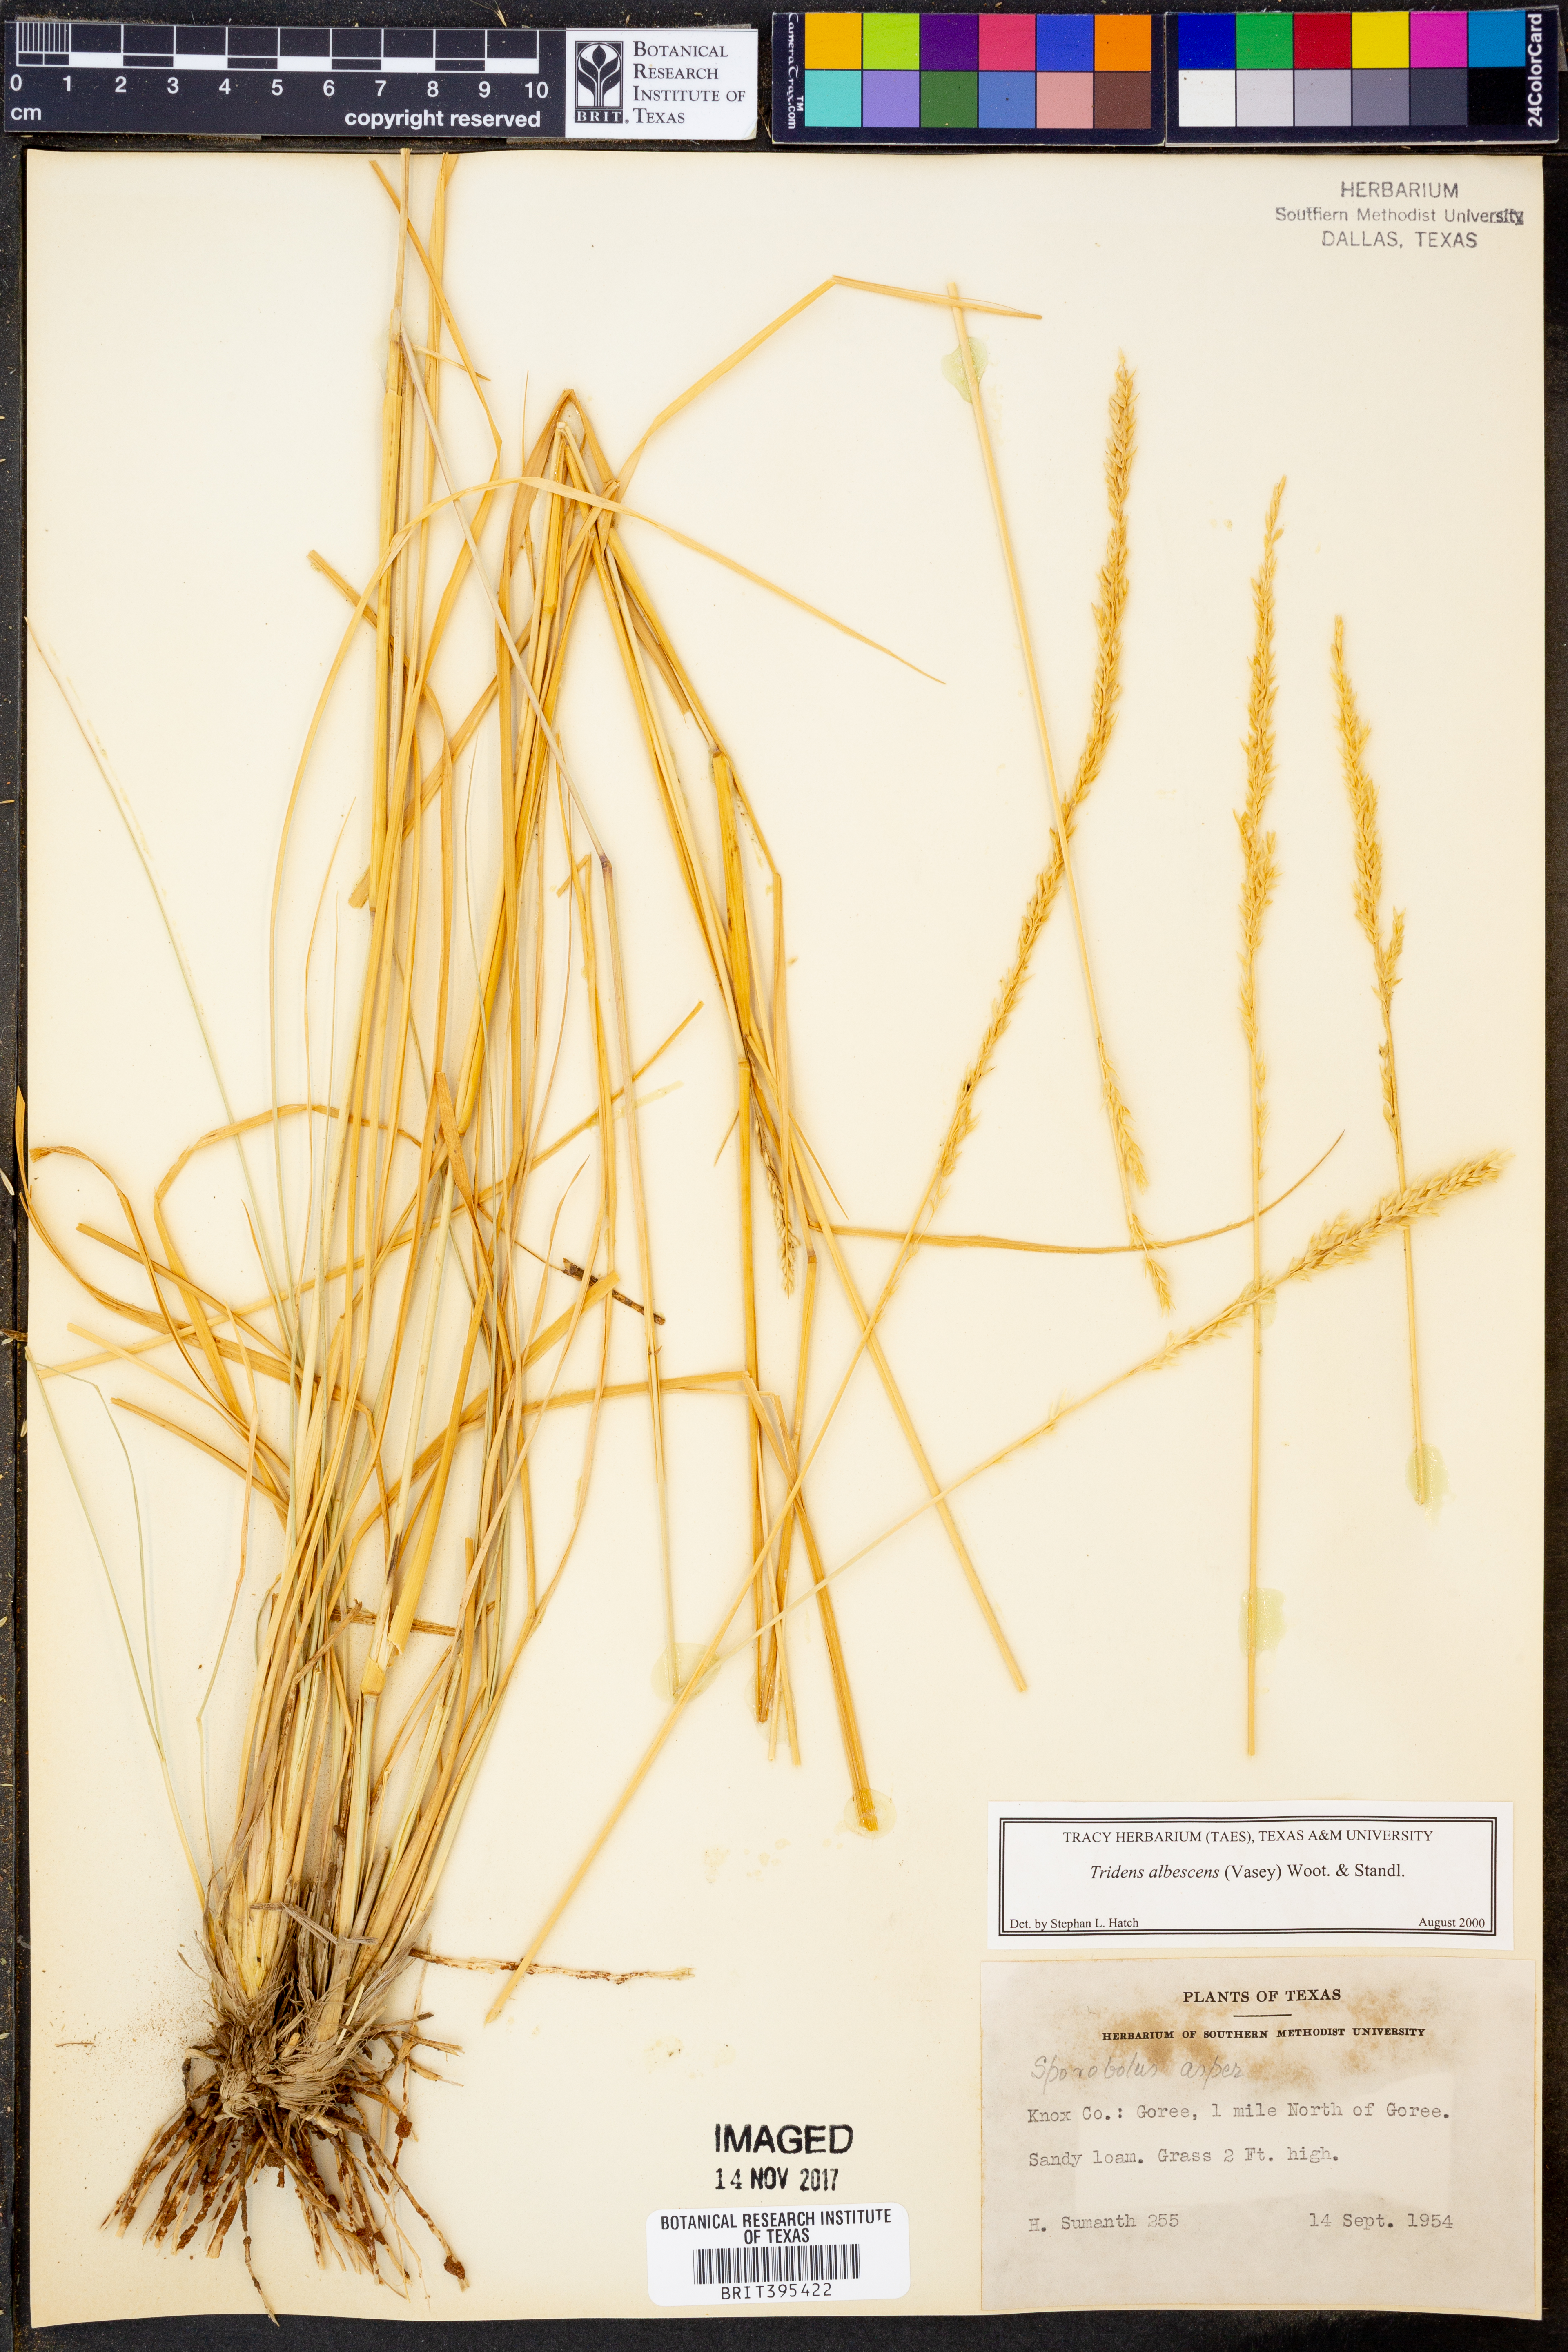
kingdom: Plantae
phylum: Tracheophyta
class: Liliopsida
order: Poales
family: Poaceae
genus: Tridens
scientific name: Tridens albescens
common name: White tridens
